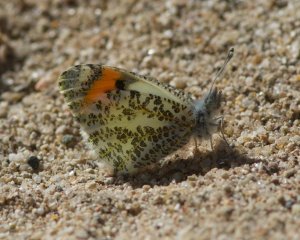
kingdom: Animalia
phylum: Arthropoda
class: Insecta
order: Lepidoptera
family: Pieridae
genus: Anthocharis
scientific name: Anthocharis sara
